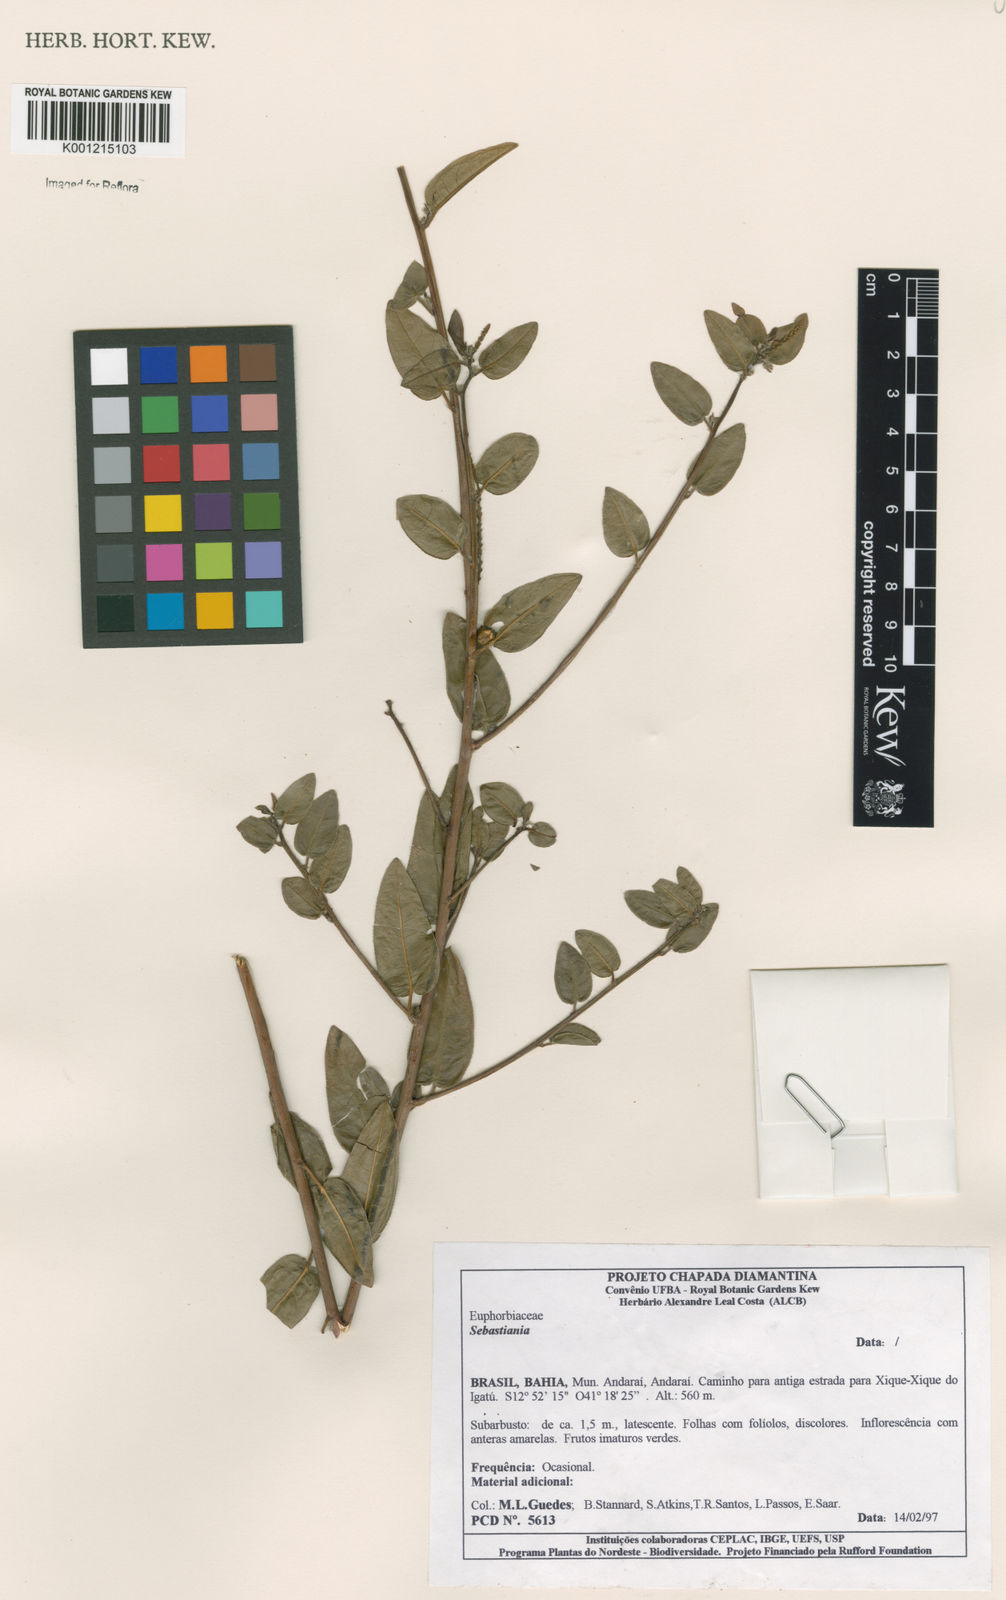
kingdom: Plantae
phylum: Tracheophyta
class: Magnoliopsida
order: Malpighiales
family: Euphorbiaceae
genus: Sebastiania
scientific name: Sebastiania
